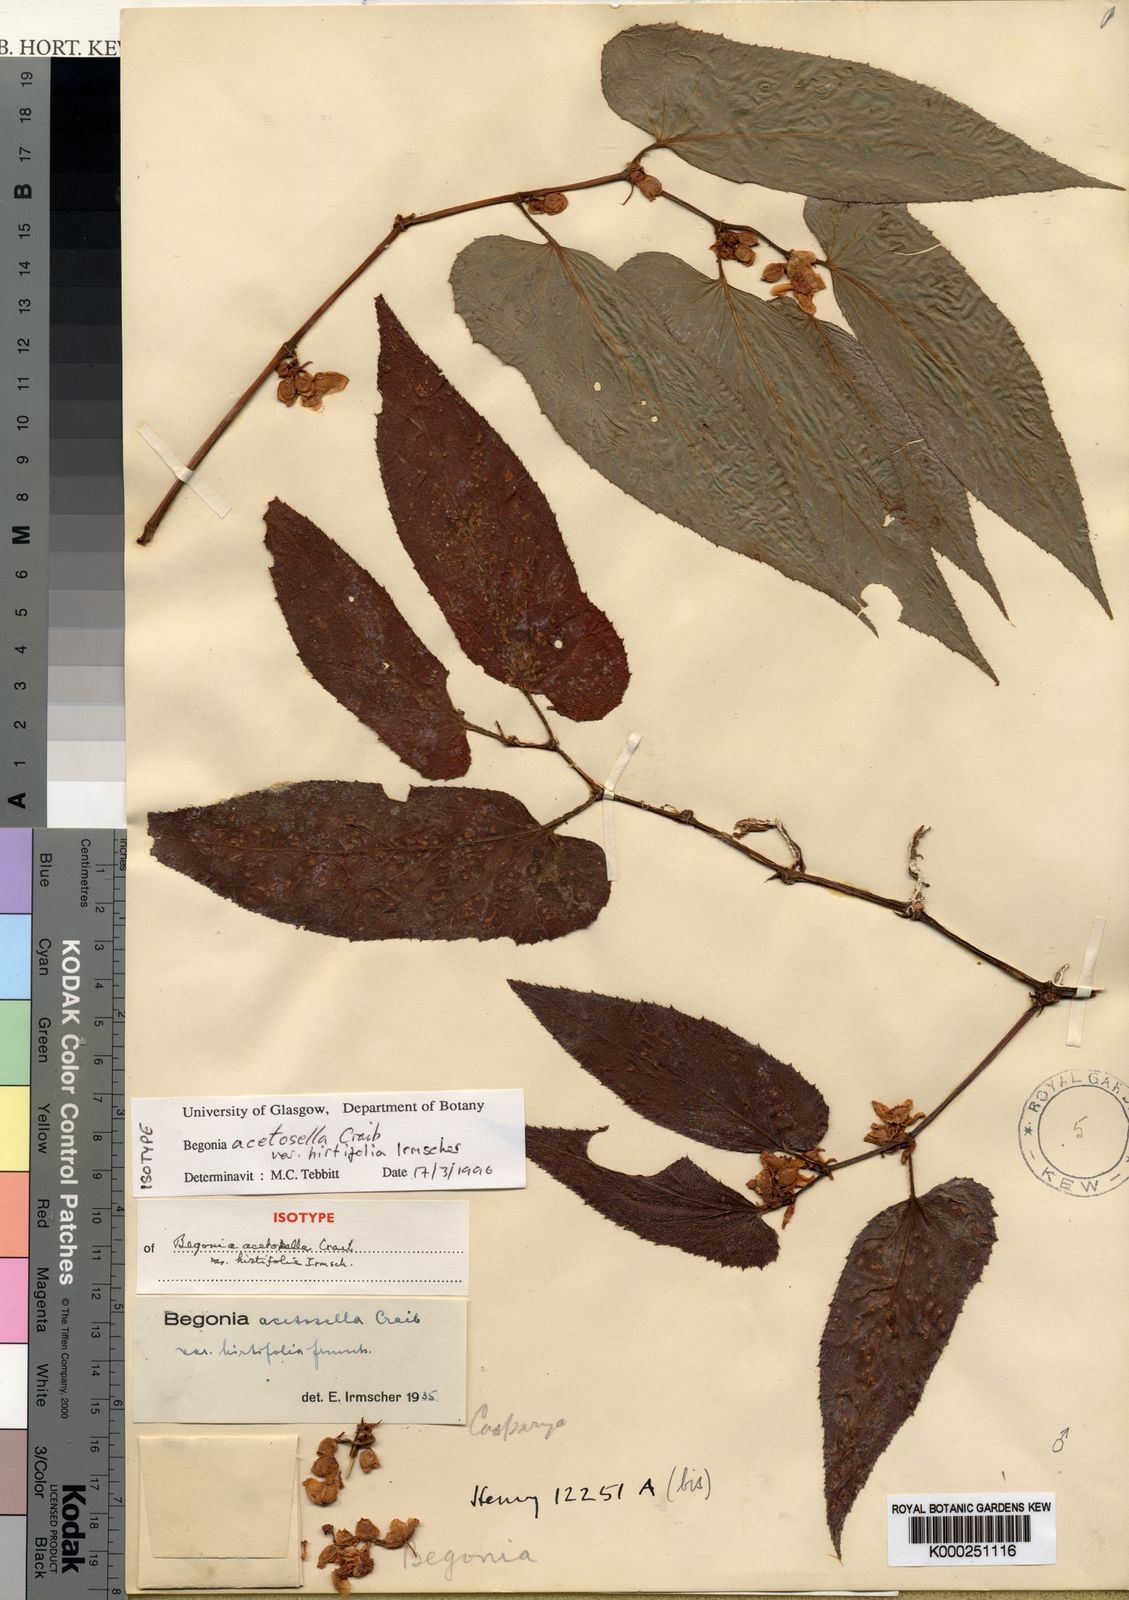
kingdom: Plantae
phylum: Tracheophyta
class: Magnoliopsida
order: Cucurbitales
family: Begoniaceae
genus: Begonia
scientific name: Begonia acetosella
